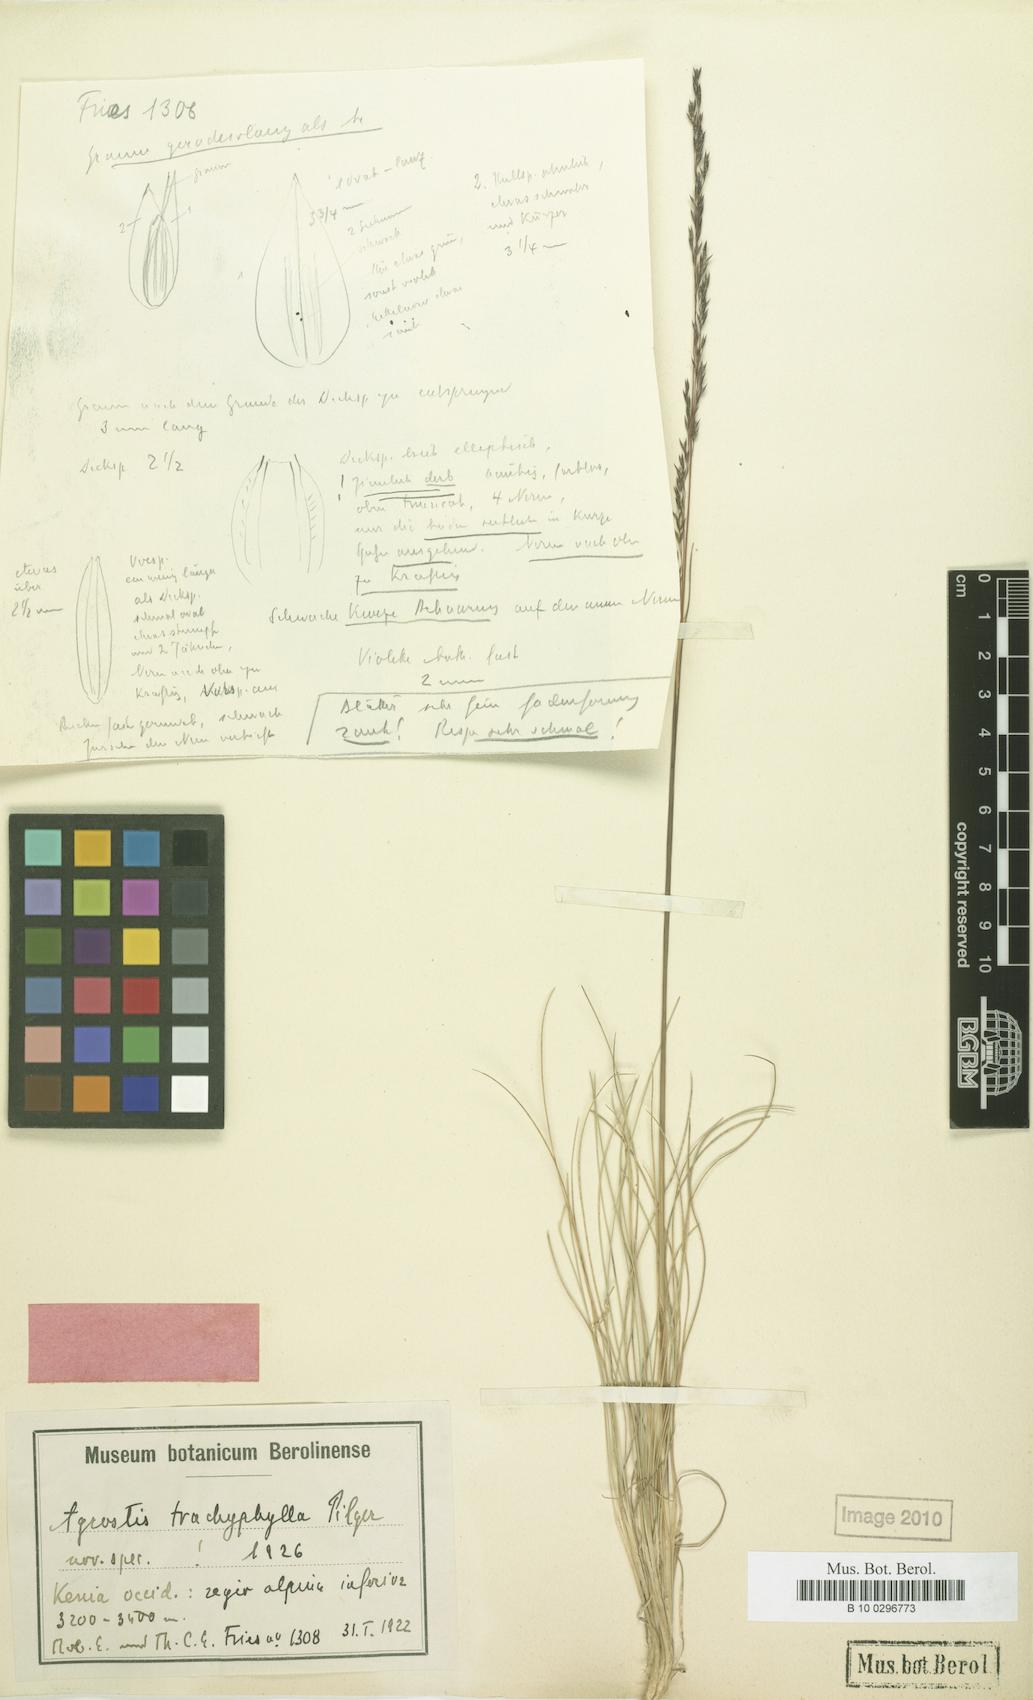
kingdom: Plantae
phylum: Tracheophyta
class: Liliopsida
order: Poales
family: Poaceae
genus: Agrostis
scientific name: Agrostis trachyphylla
